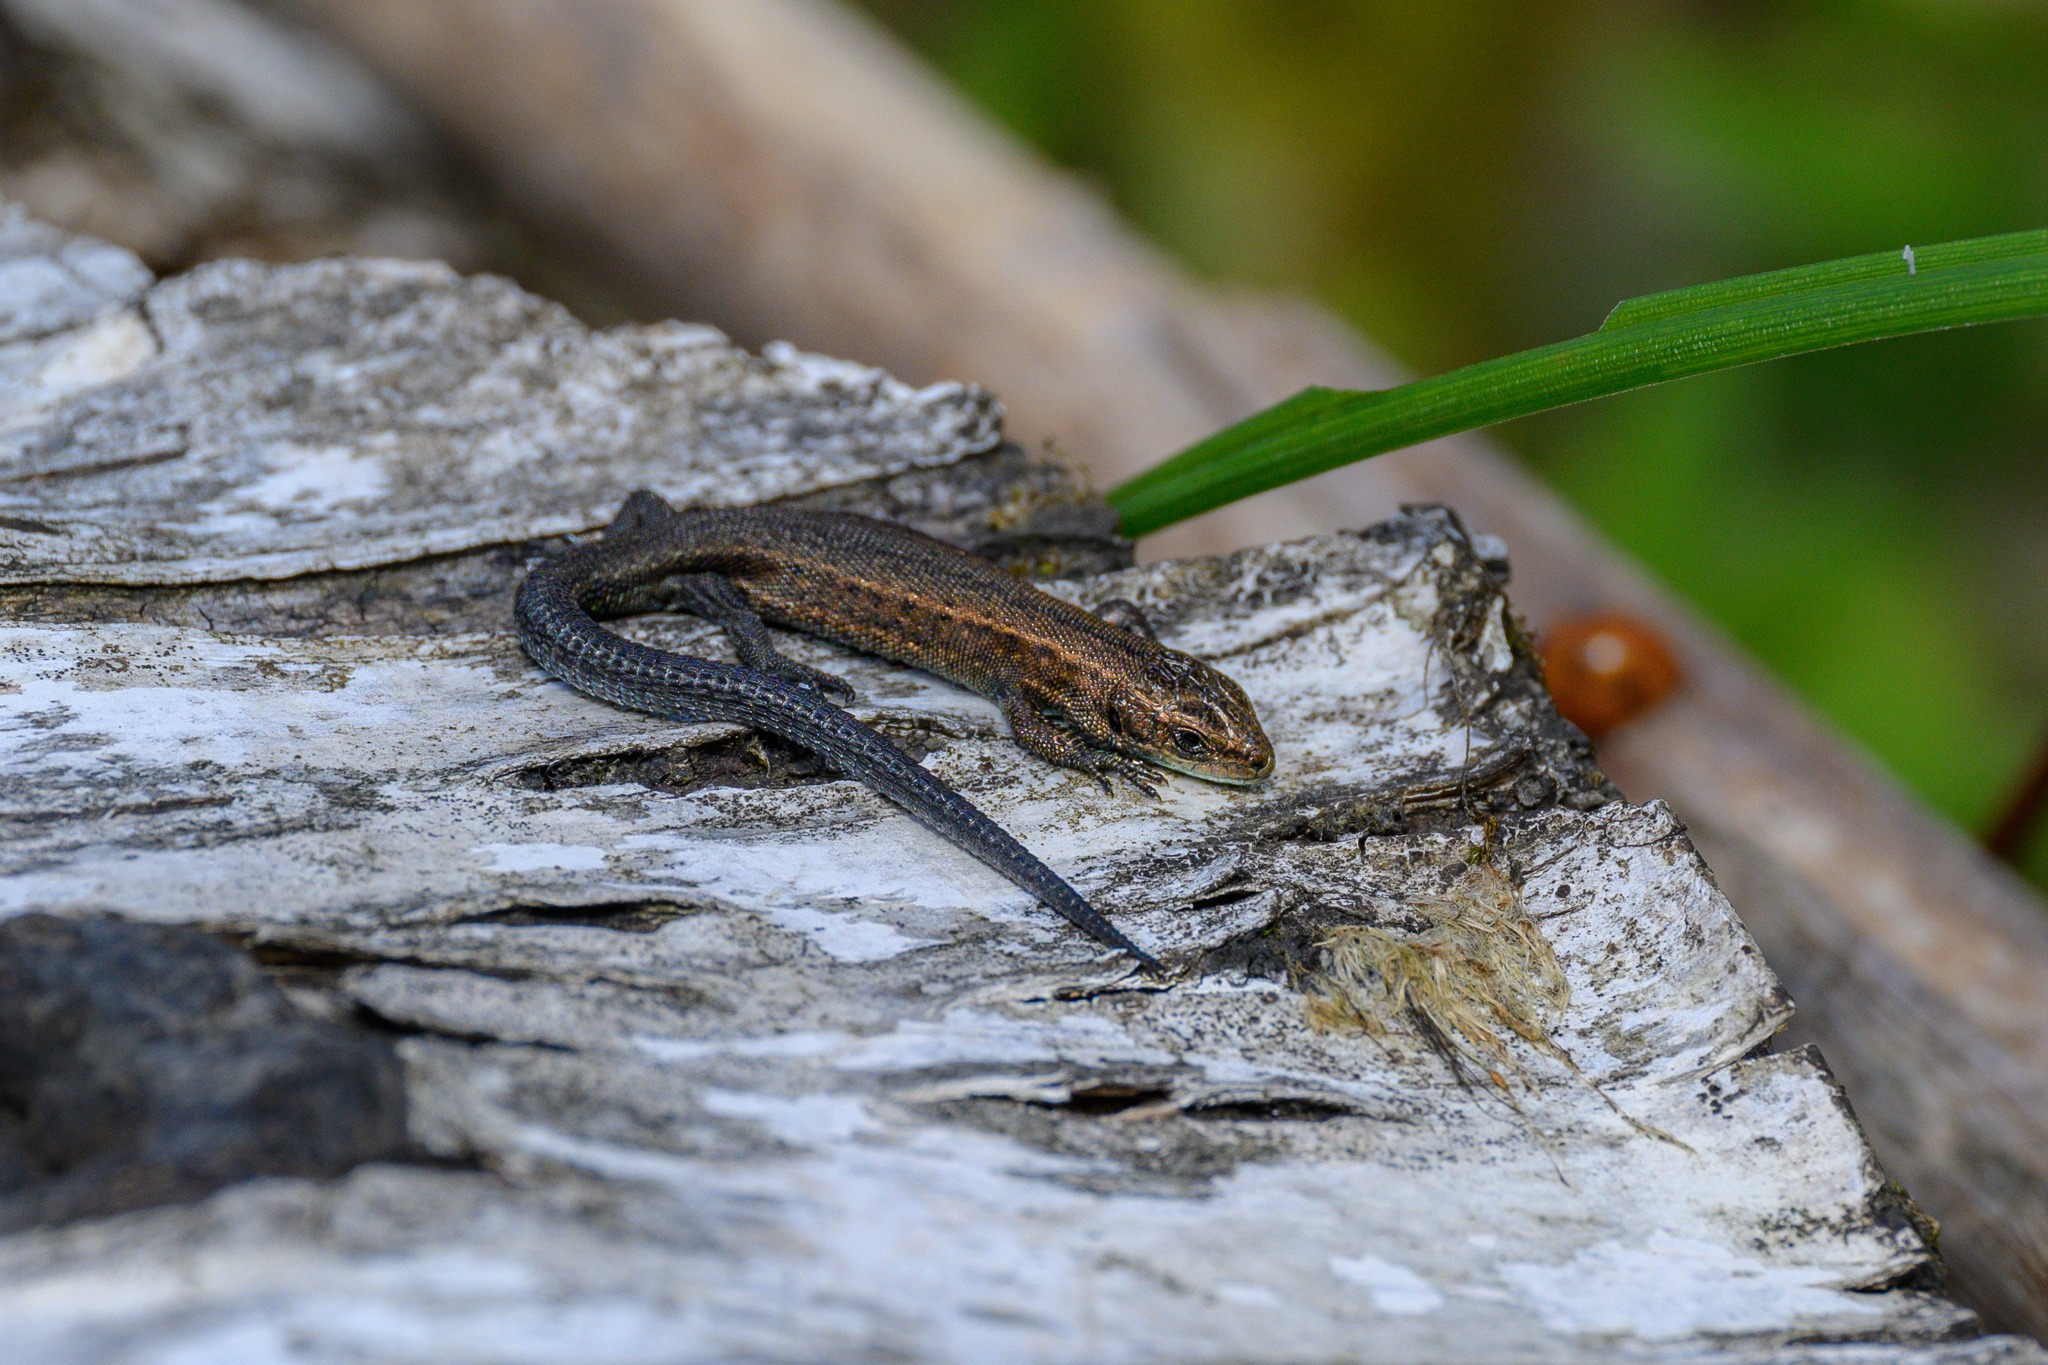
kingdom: Animalia
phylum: Chordata
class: Squamata
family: Lacertidae
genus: Zootoca
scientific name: Zootoca vivipara
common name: Skovfirben
